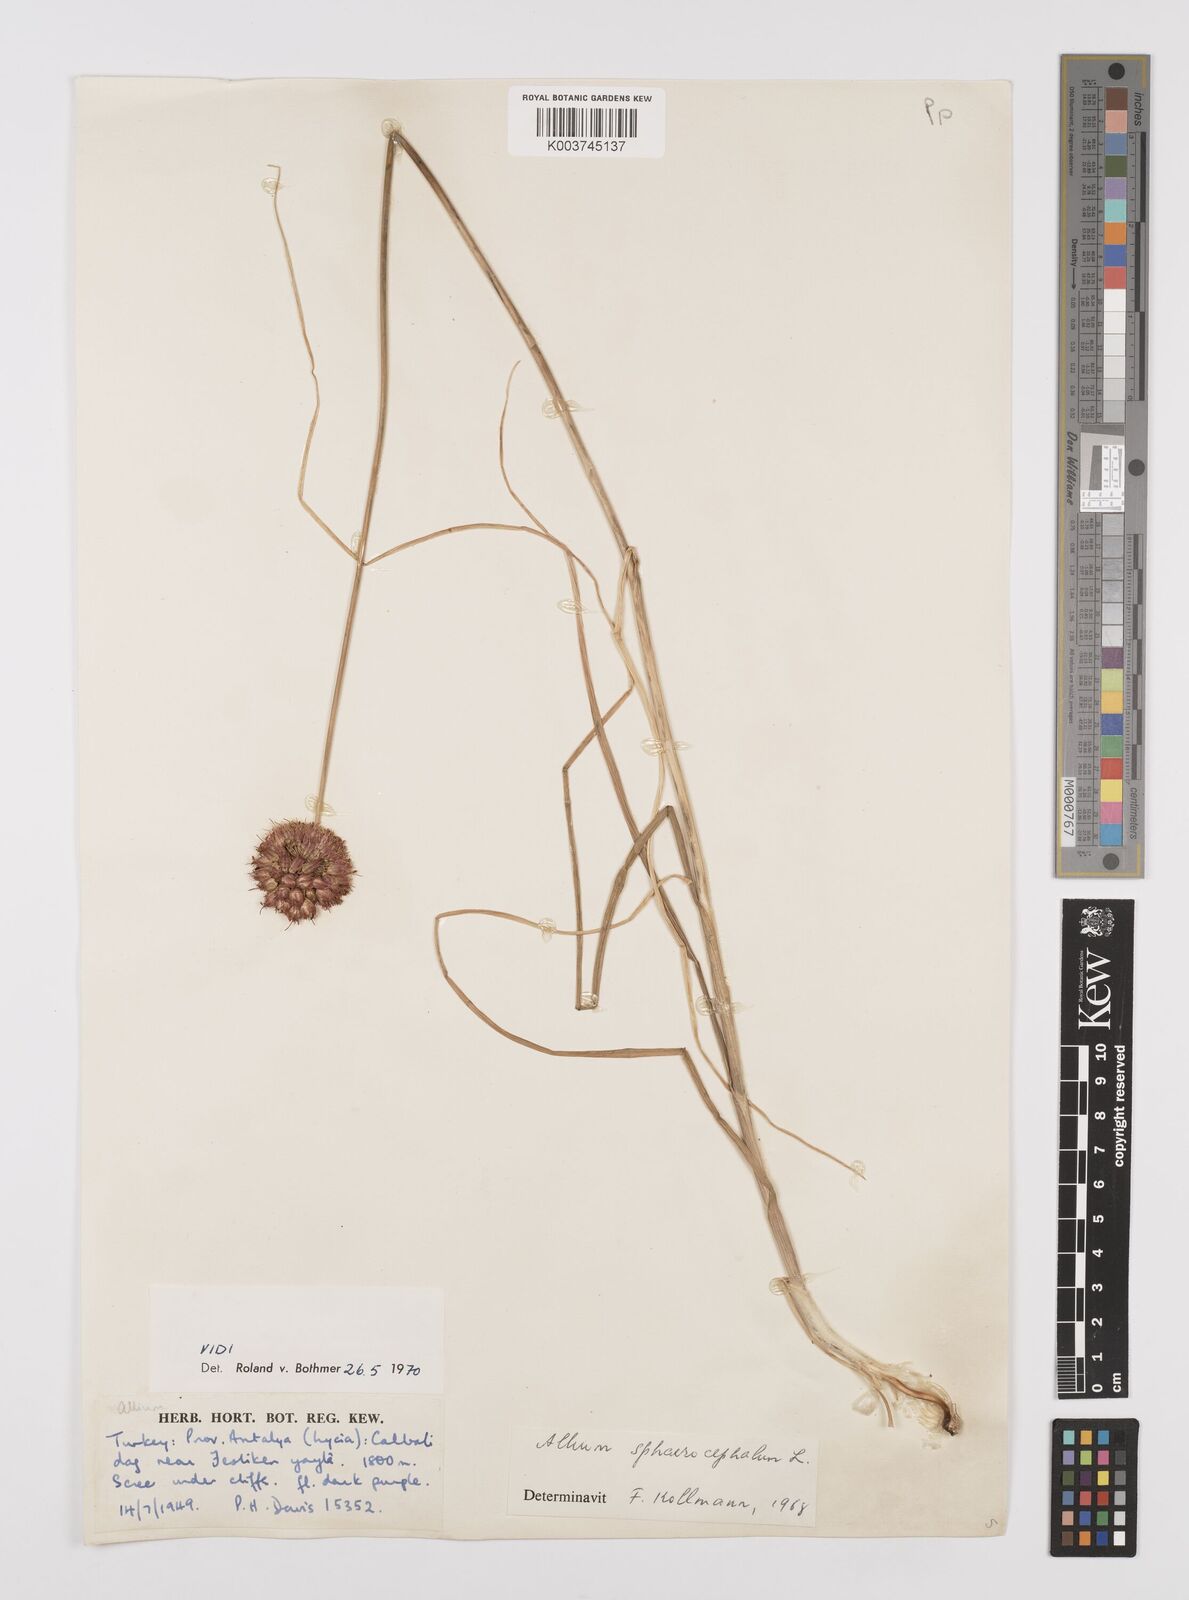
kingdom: Plantae
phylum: Tracheophyta
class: Liliopsida
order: Asparagales
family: Amaryllidaceae
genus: Allium
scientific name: Allium stylosum
